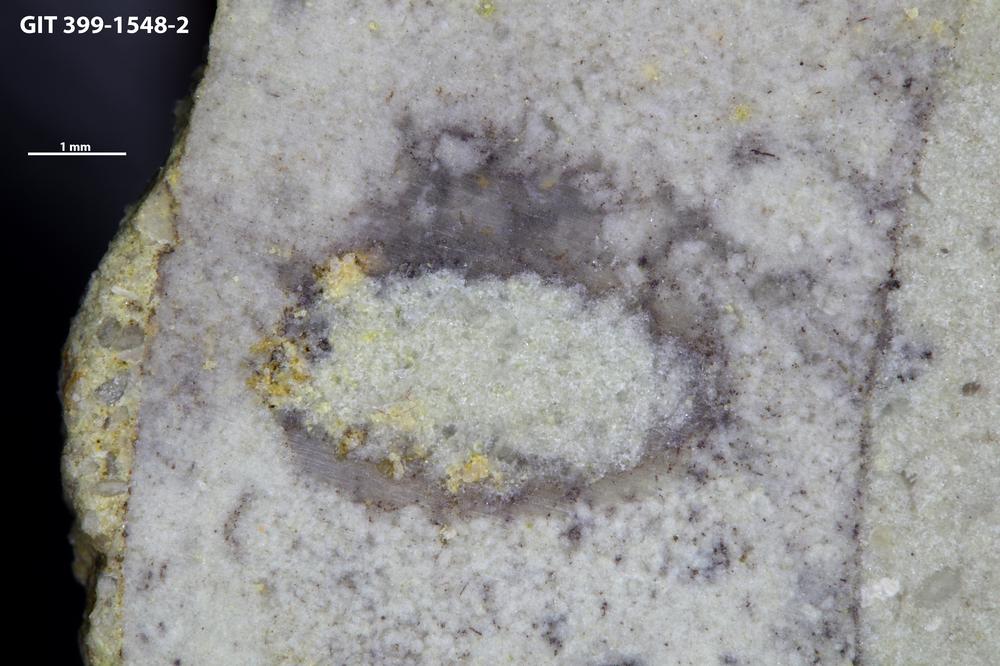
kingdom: Animalia
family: Coprulidae
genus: Coprulus
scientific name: Coprulus
